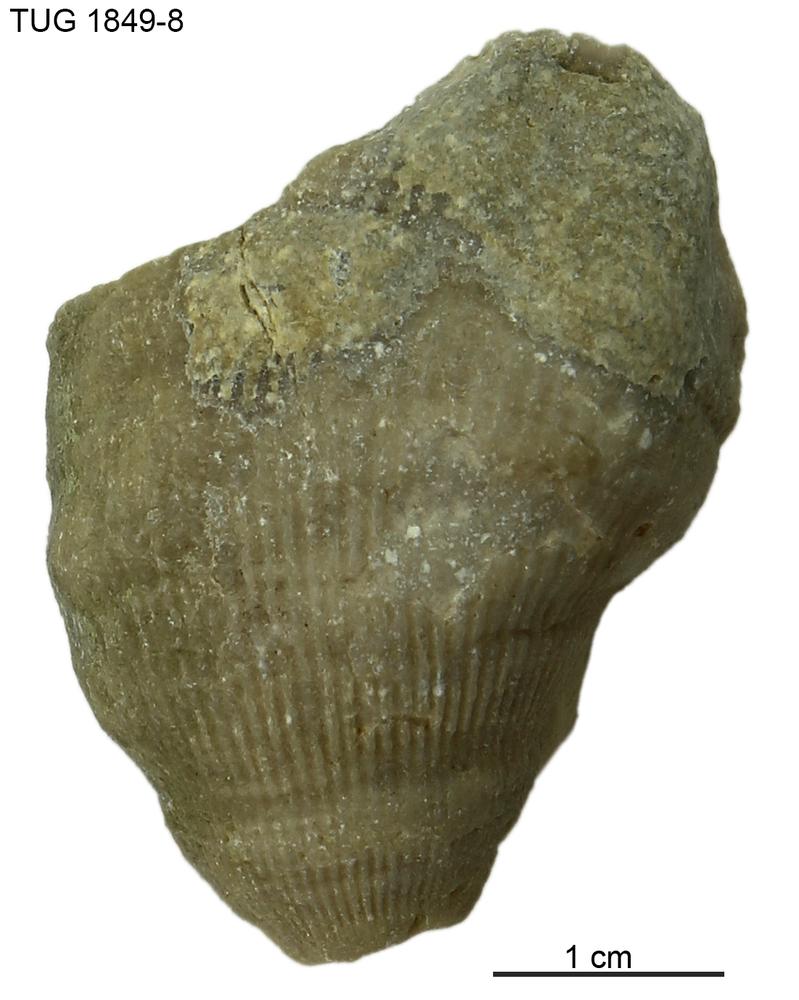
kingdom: Animalia
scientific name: Animalia
